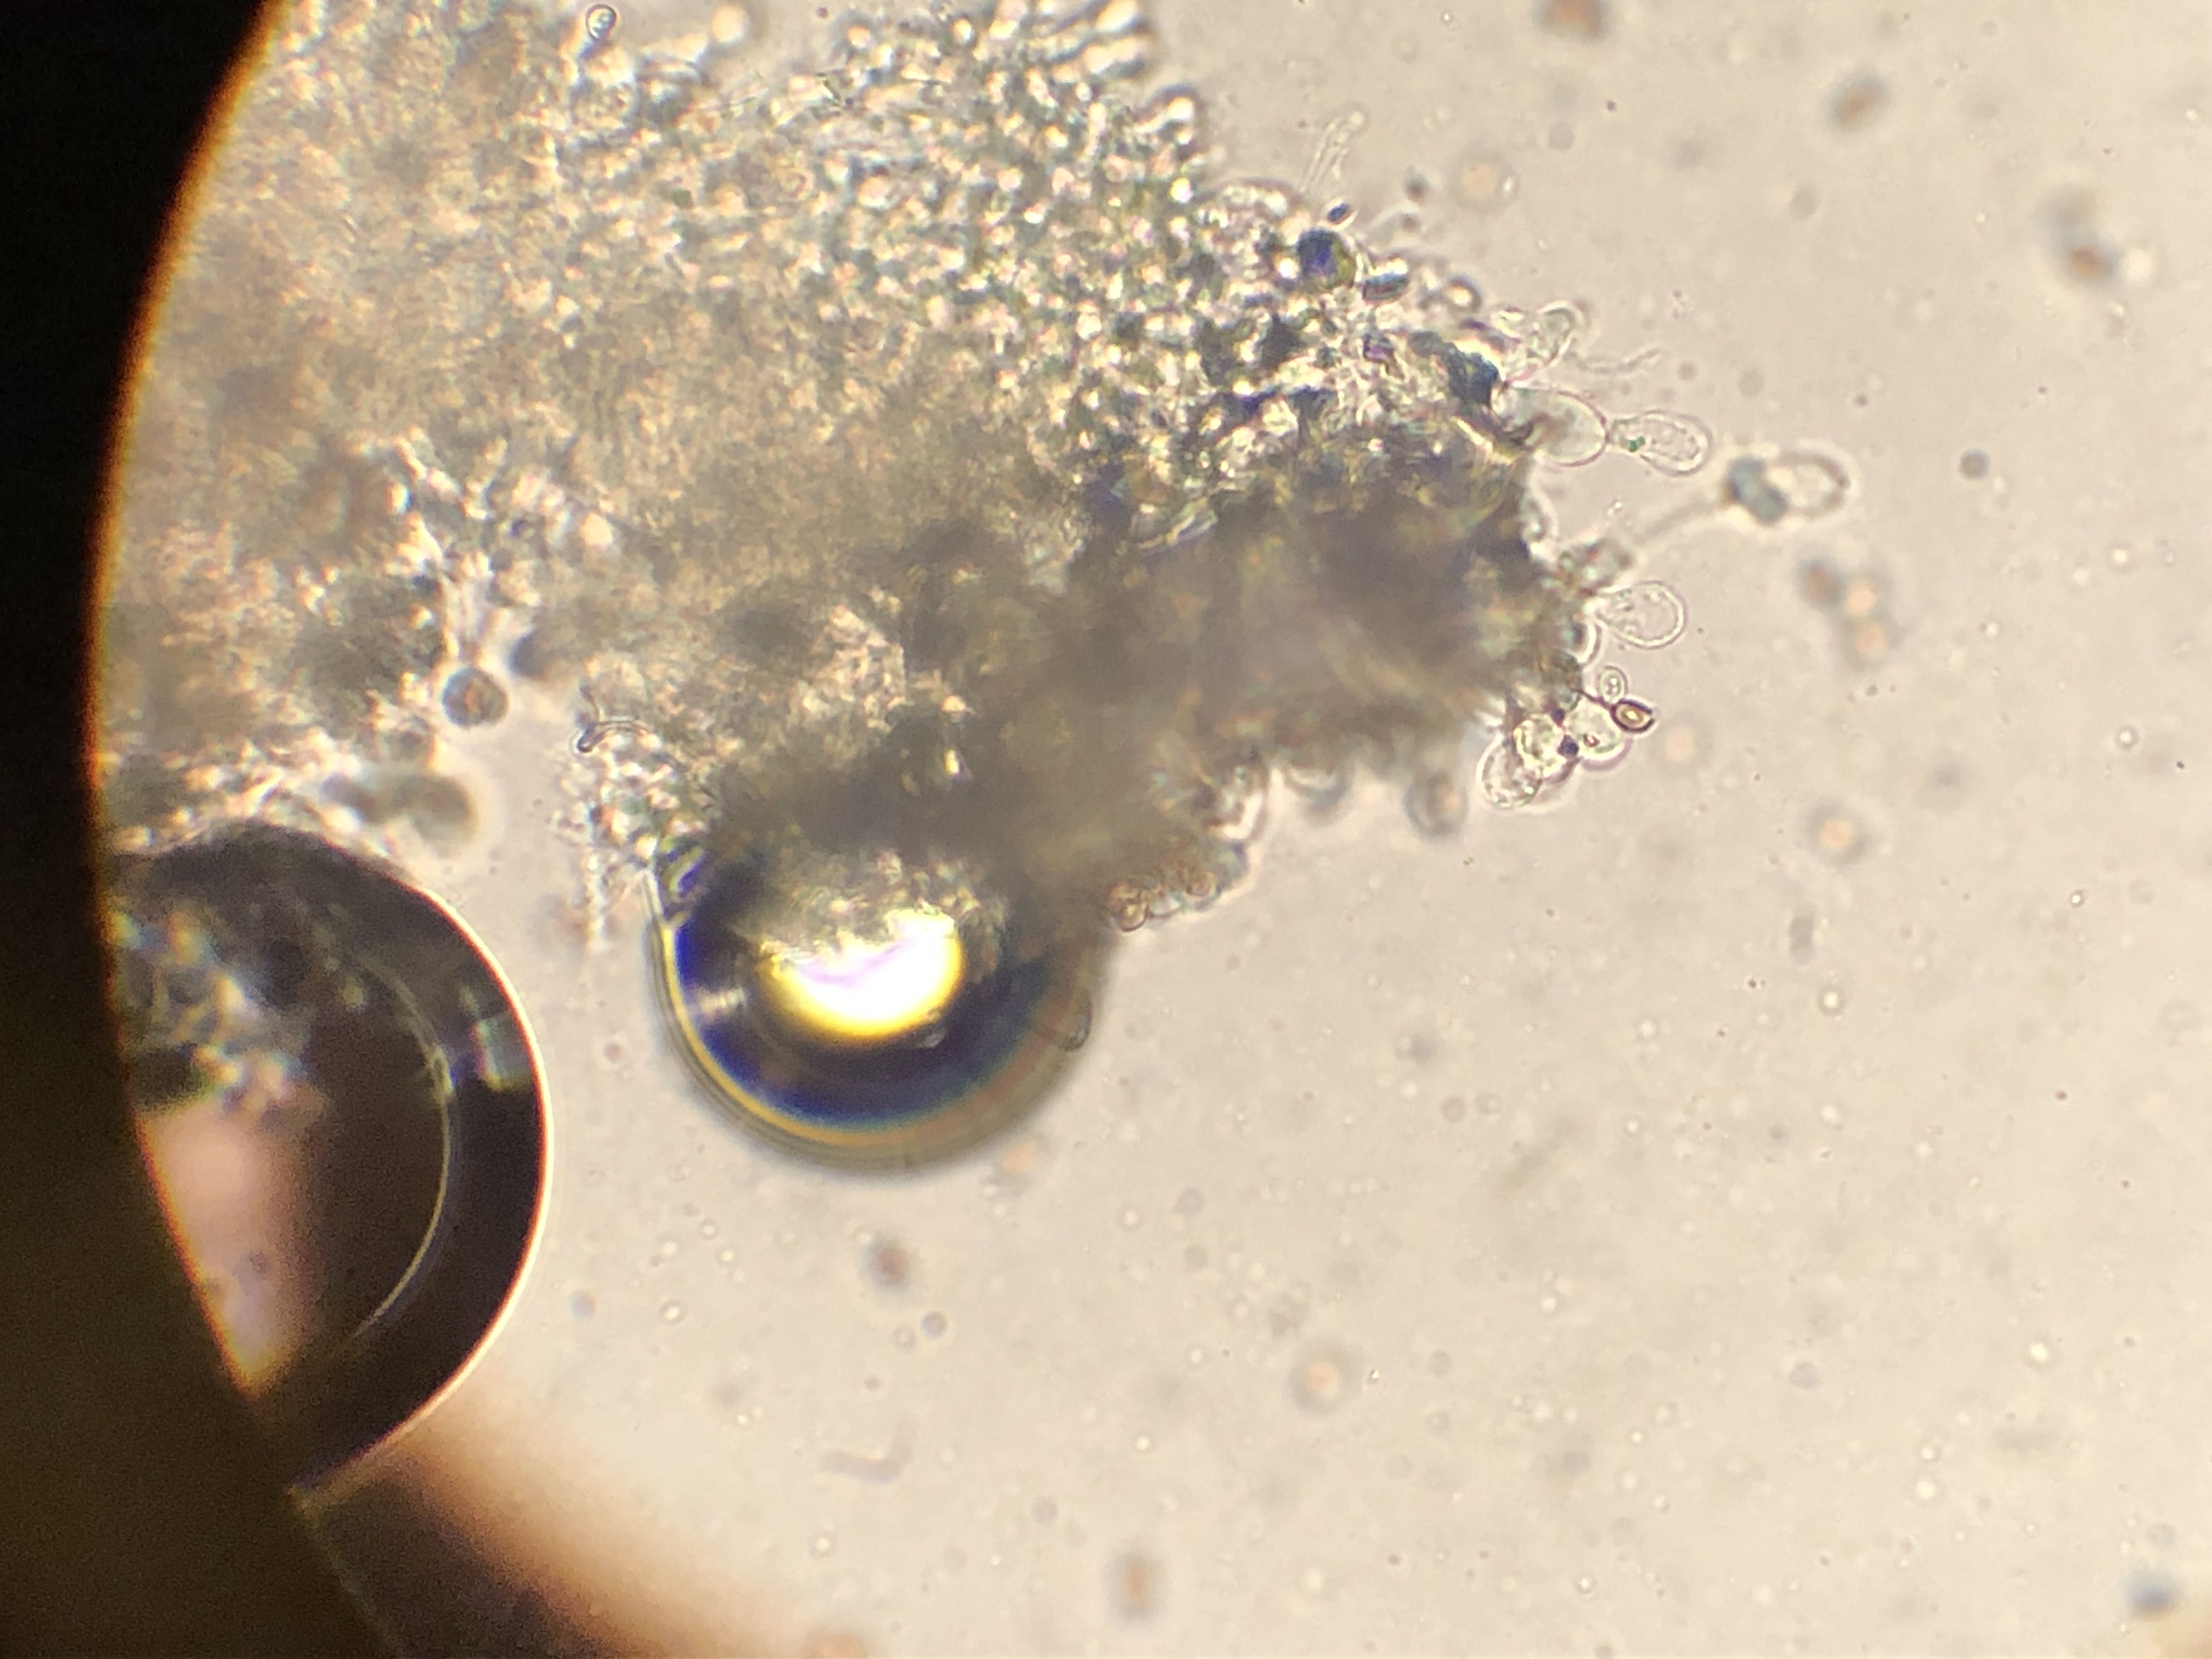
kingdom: Fungi
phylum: Basidiomycota
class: Agaricomycetes
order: Agaricales
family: Agaricaceae
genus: Agaricus
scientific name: Agaricus brunneolus
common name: purpur-champignon
